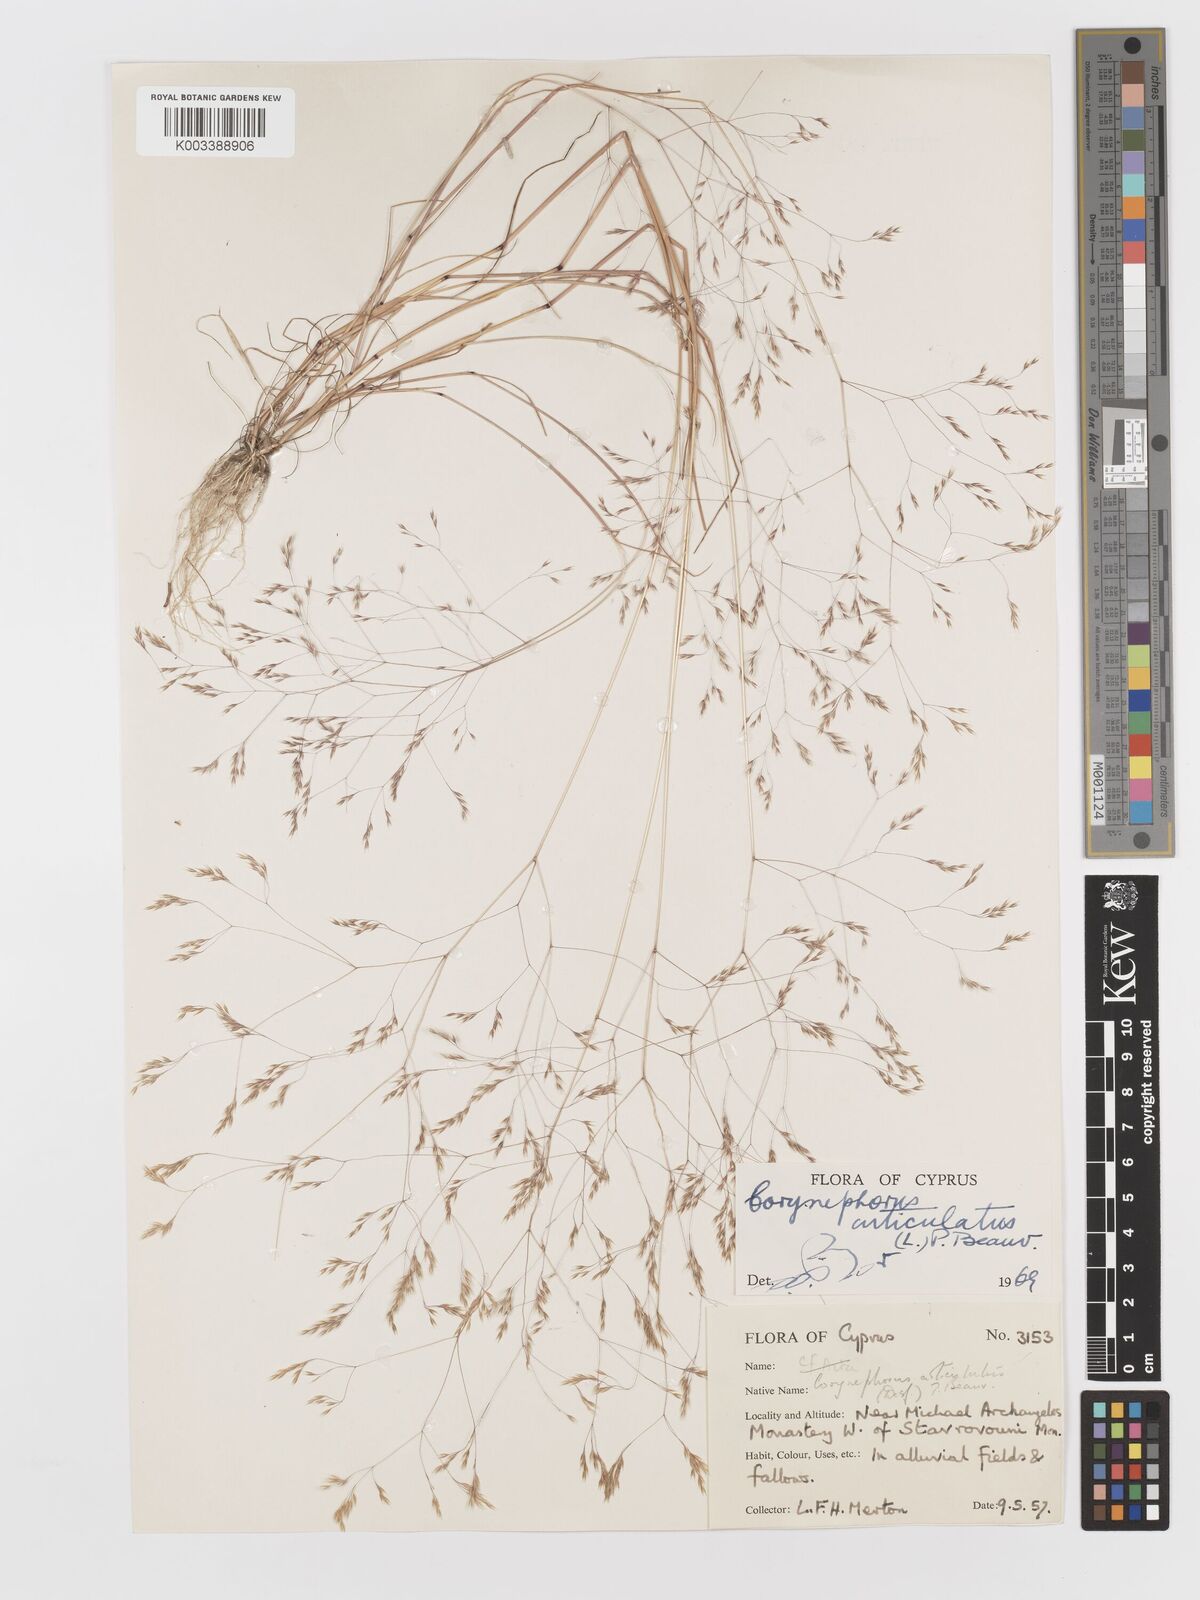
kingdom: Plantae
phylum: Tracheophyta
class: Liliopsida
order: Poales
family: Poaceae
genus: Corynephorus
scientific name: Corynephorus divaricatus
